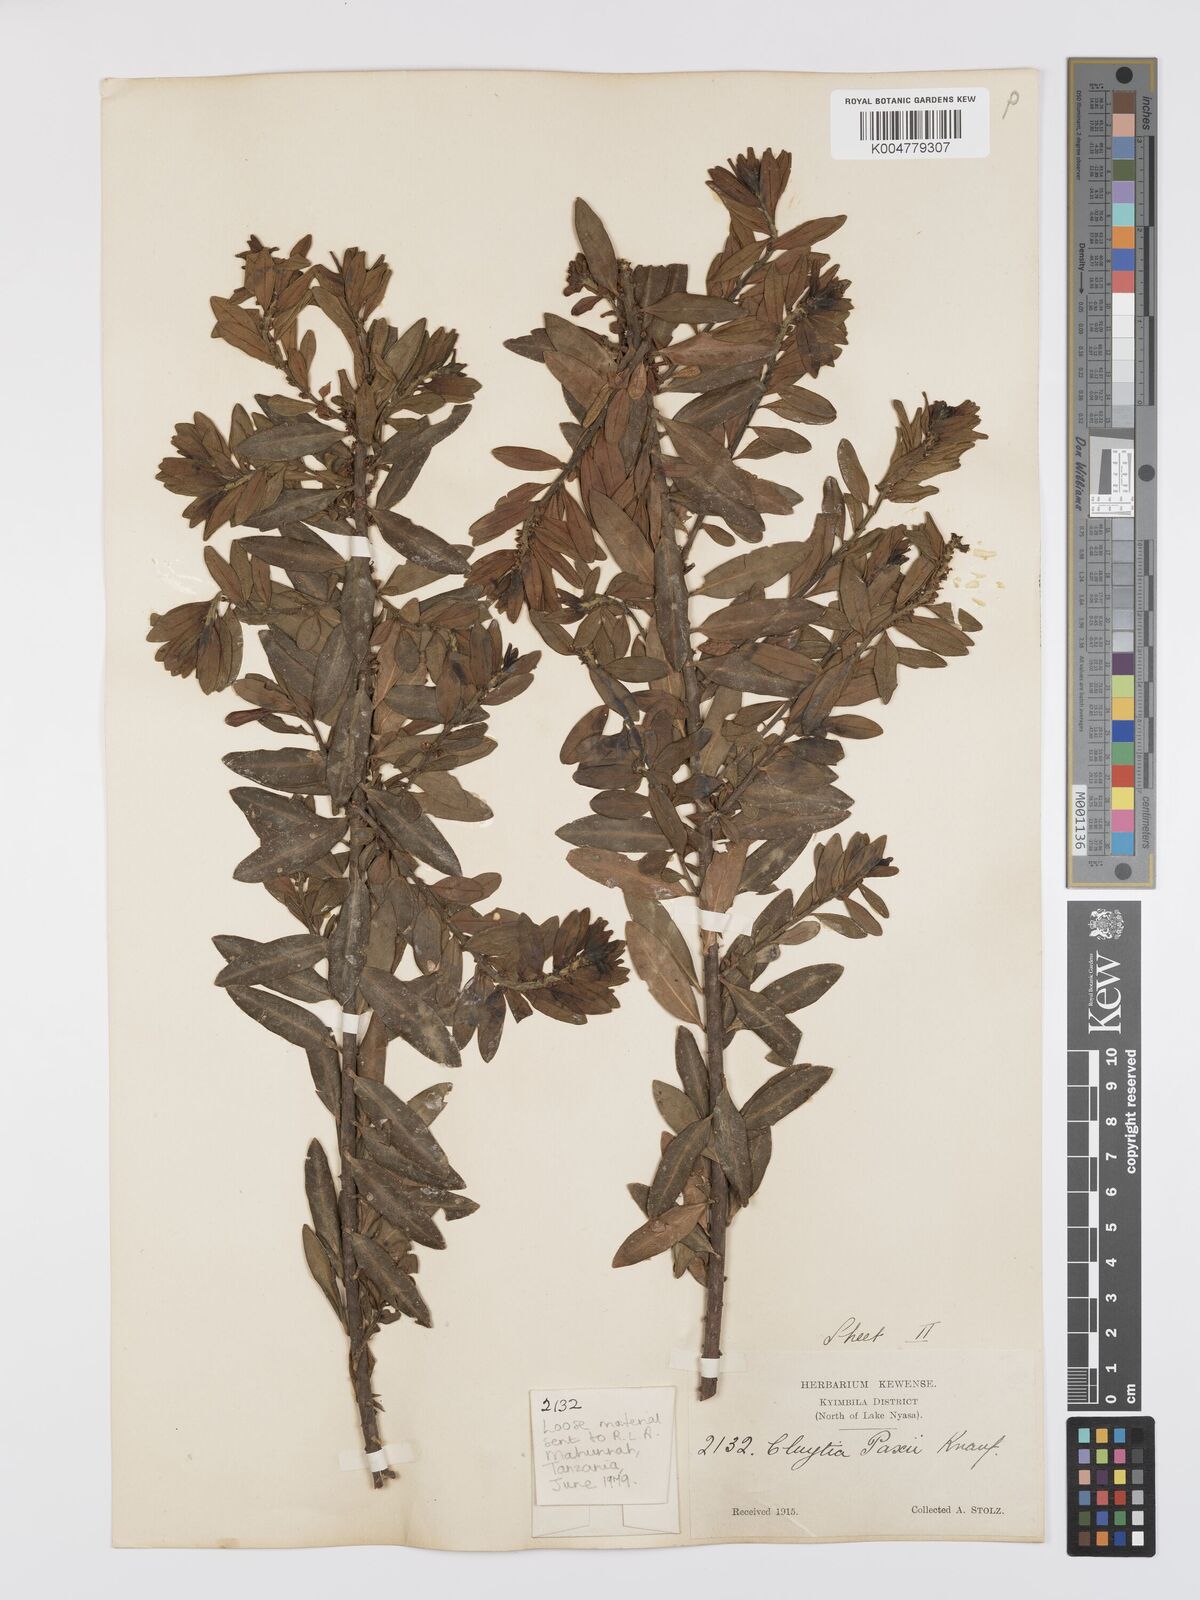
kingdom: Plantae
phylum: Tracheophyta
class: Magnoliopsida
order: Malpighiales
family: Peraceae
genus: Clutia
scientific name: Clutia paxii
